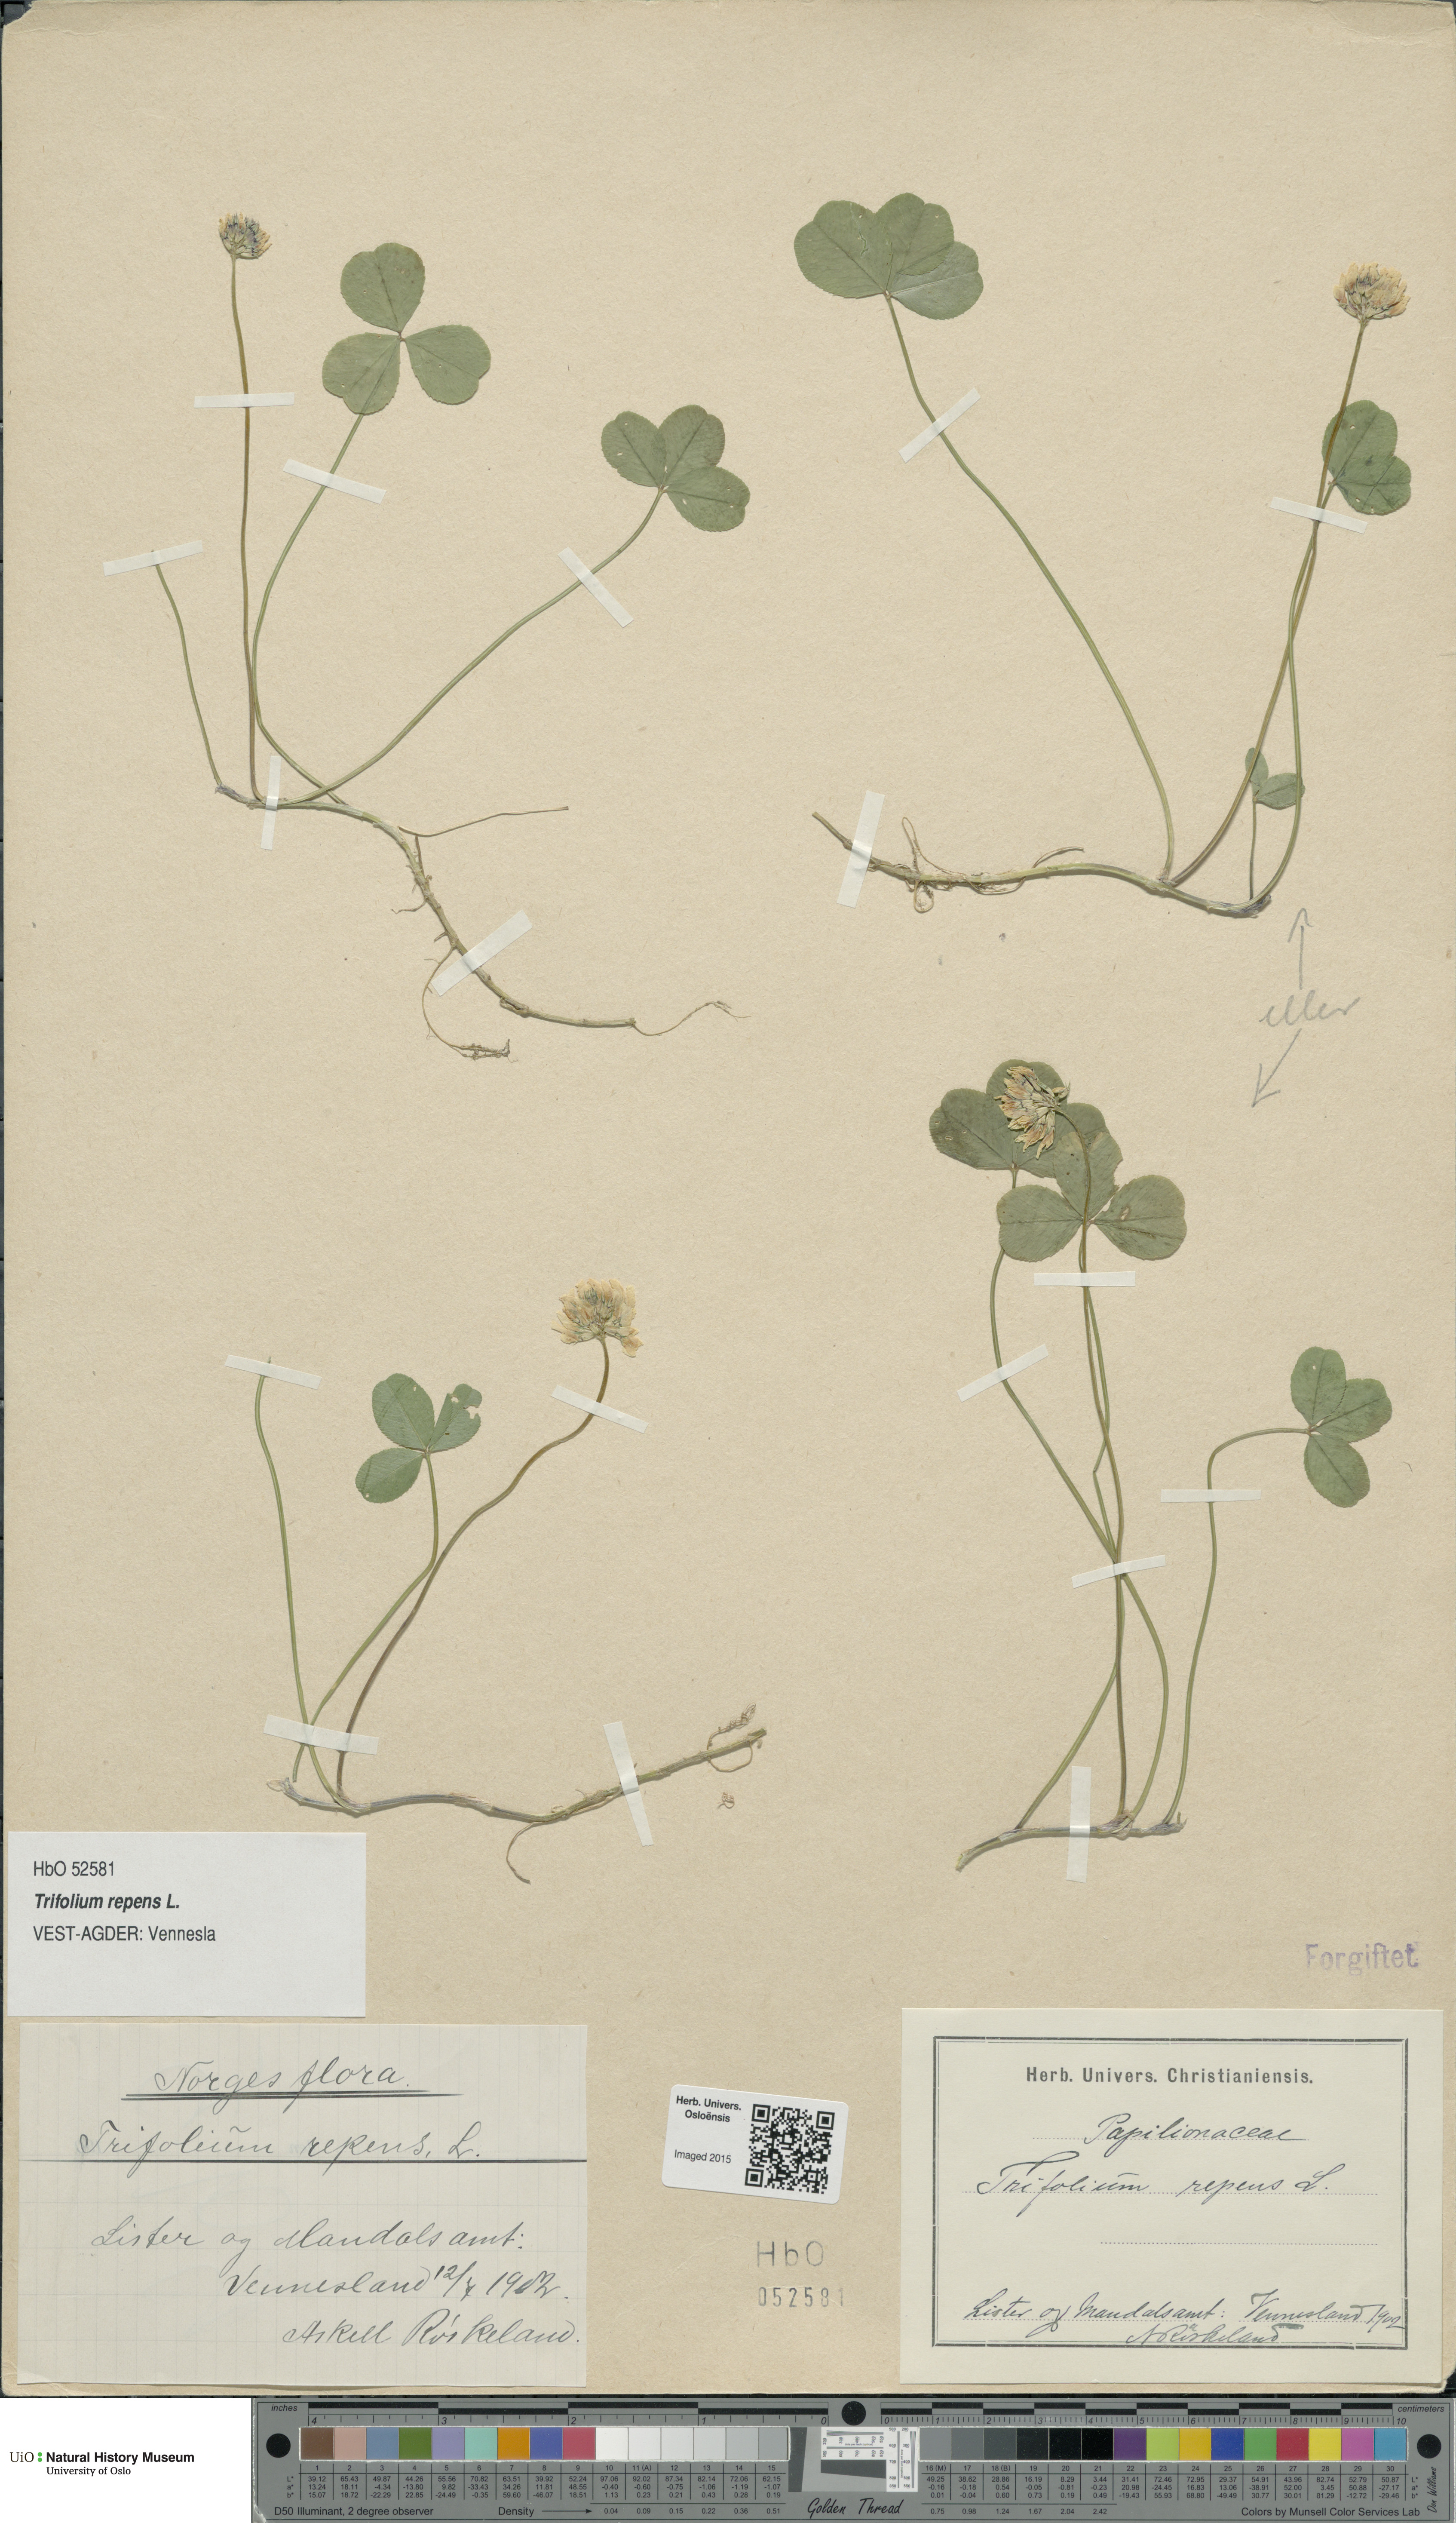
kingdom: Plantae
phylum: Tracheophyta
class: Magnoliopsida
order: Fabales
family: Fabaceae
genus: Trifolium
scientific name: Trifolium repens
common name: White clover
